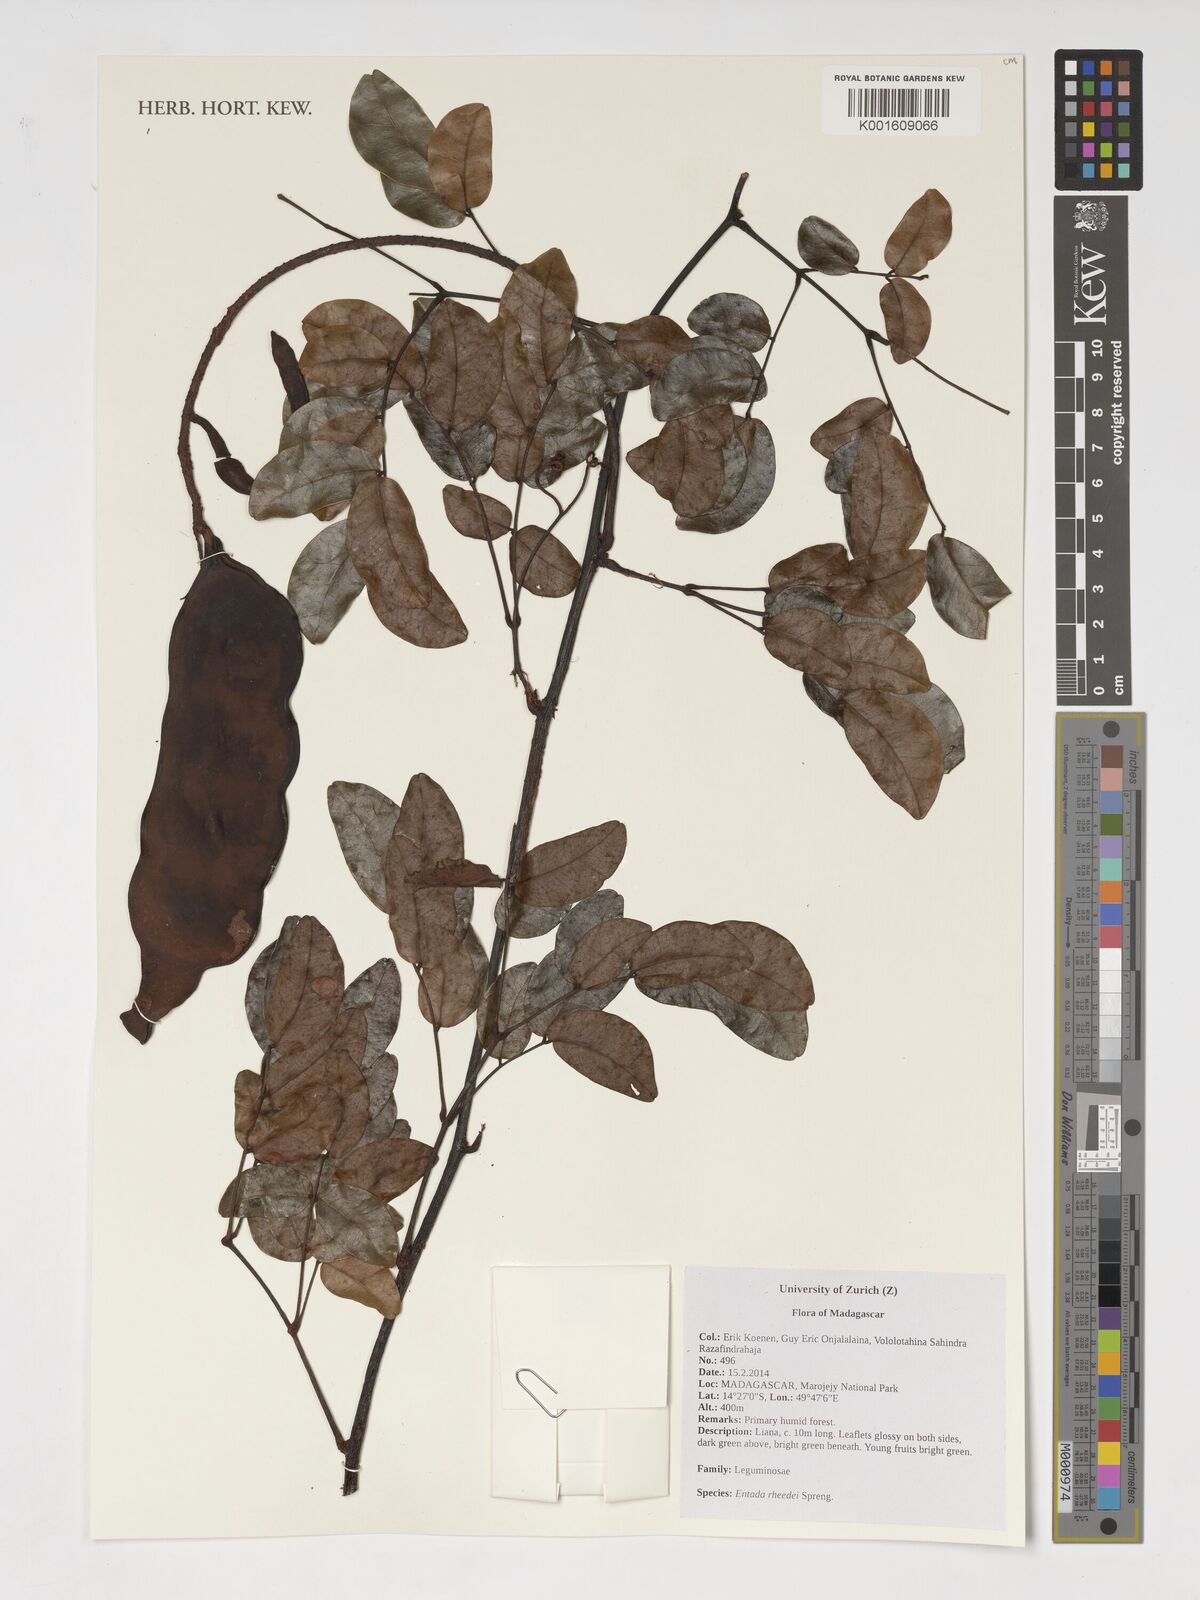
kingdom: Plantae
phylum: Tracheophyta
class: Magnoliopsida
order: Fabales
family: Fabaceae
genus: Entada
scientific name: Entada rheedei
